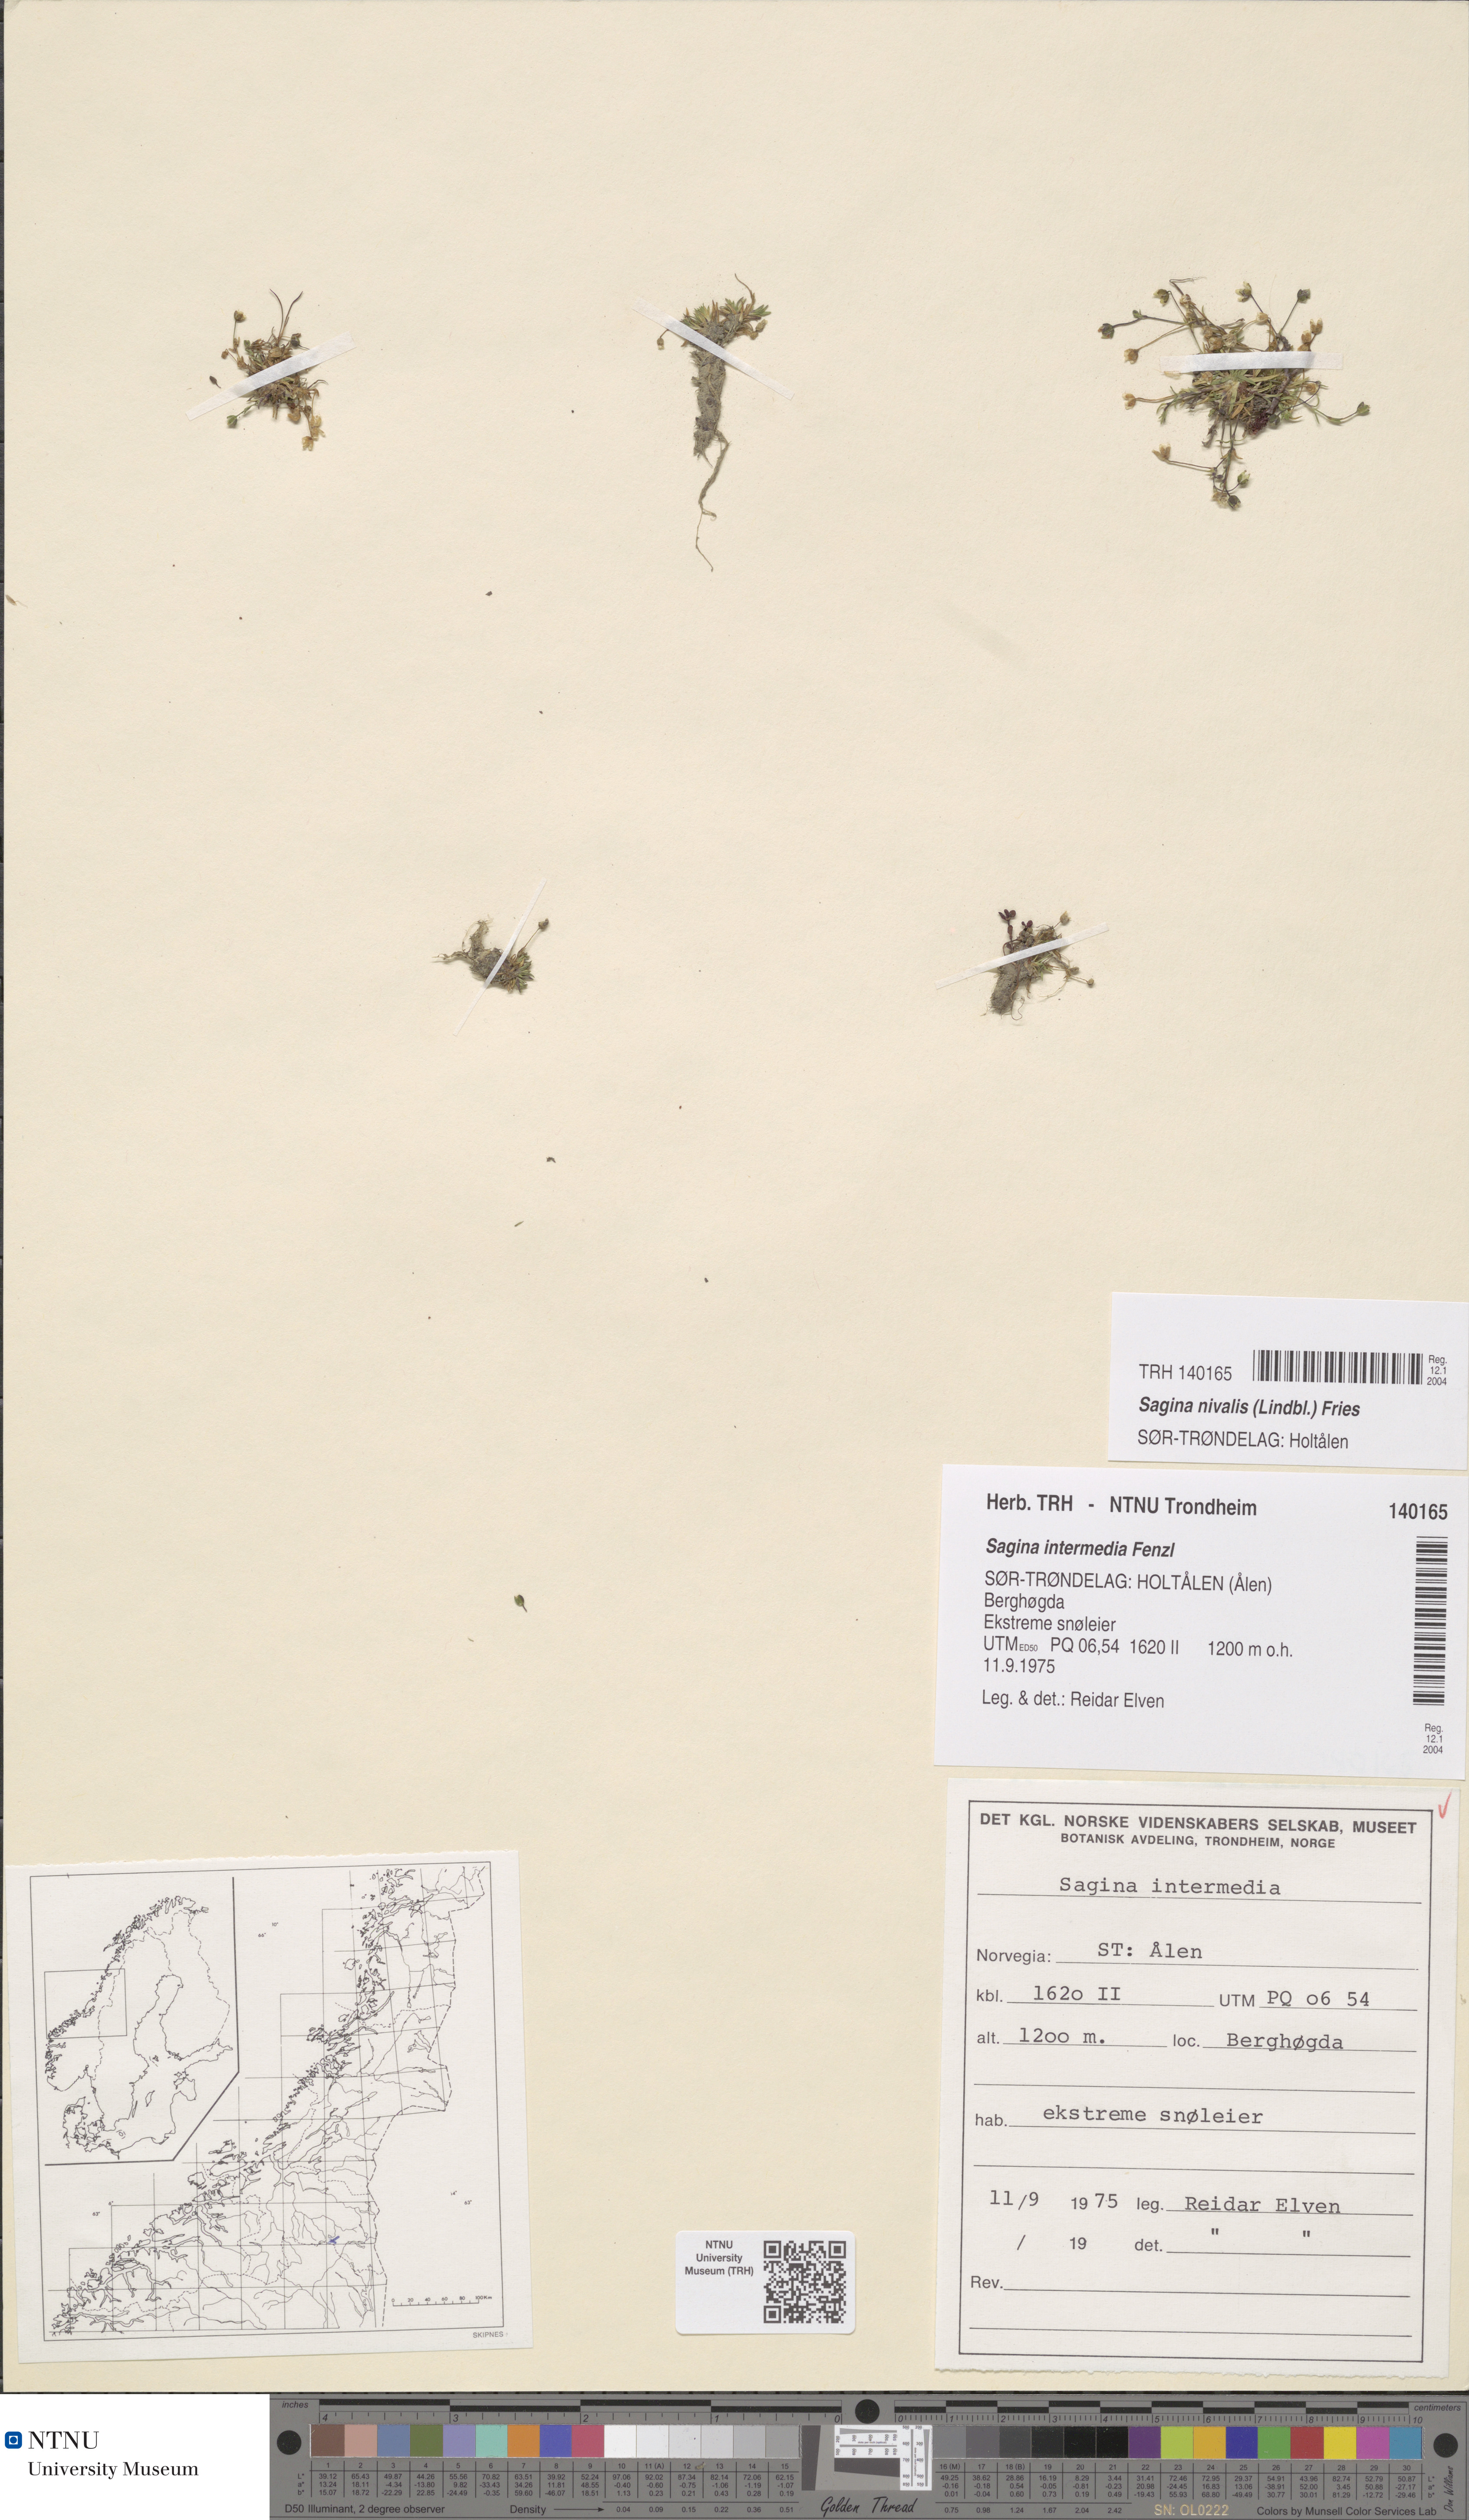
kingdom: Plantae
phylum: Tracheophyta
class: Magnoliopsida
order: Caryophyllales
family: Caryophyllaceae
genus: Sagina
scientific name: Sagina nivalis
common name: Snow pearlwort
